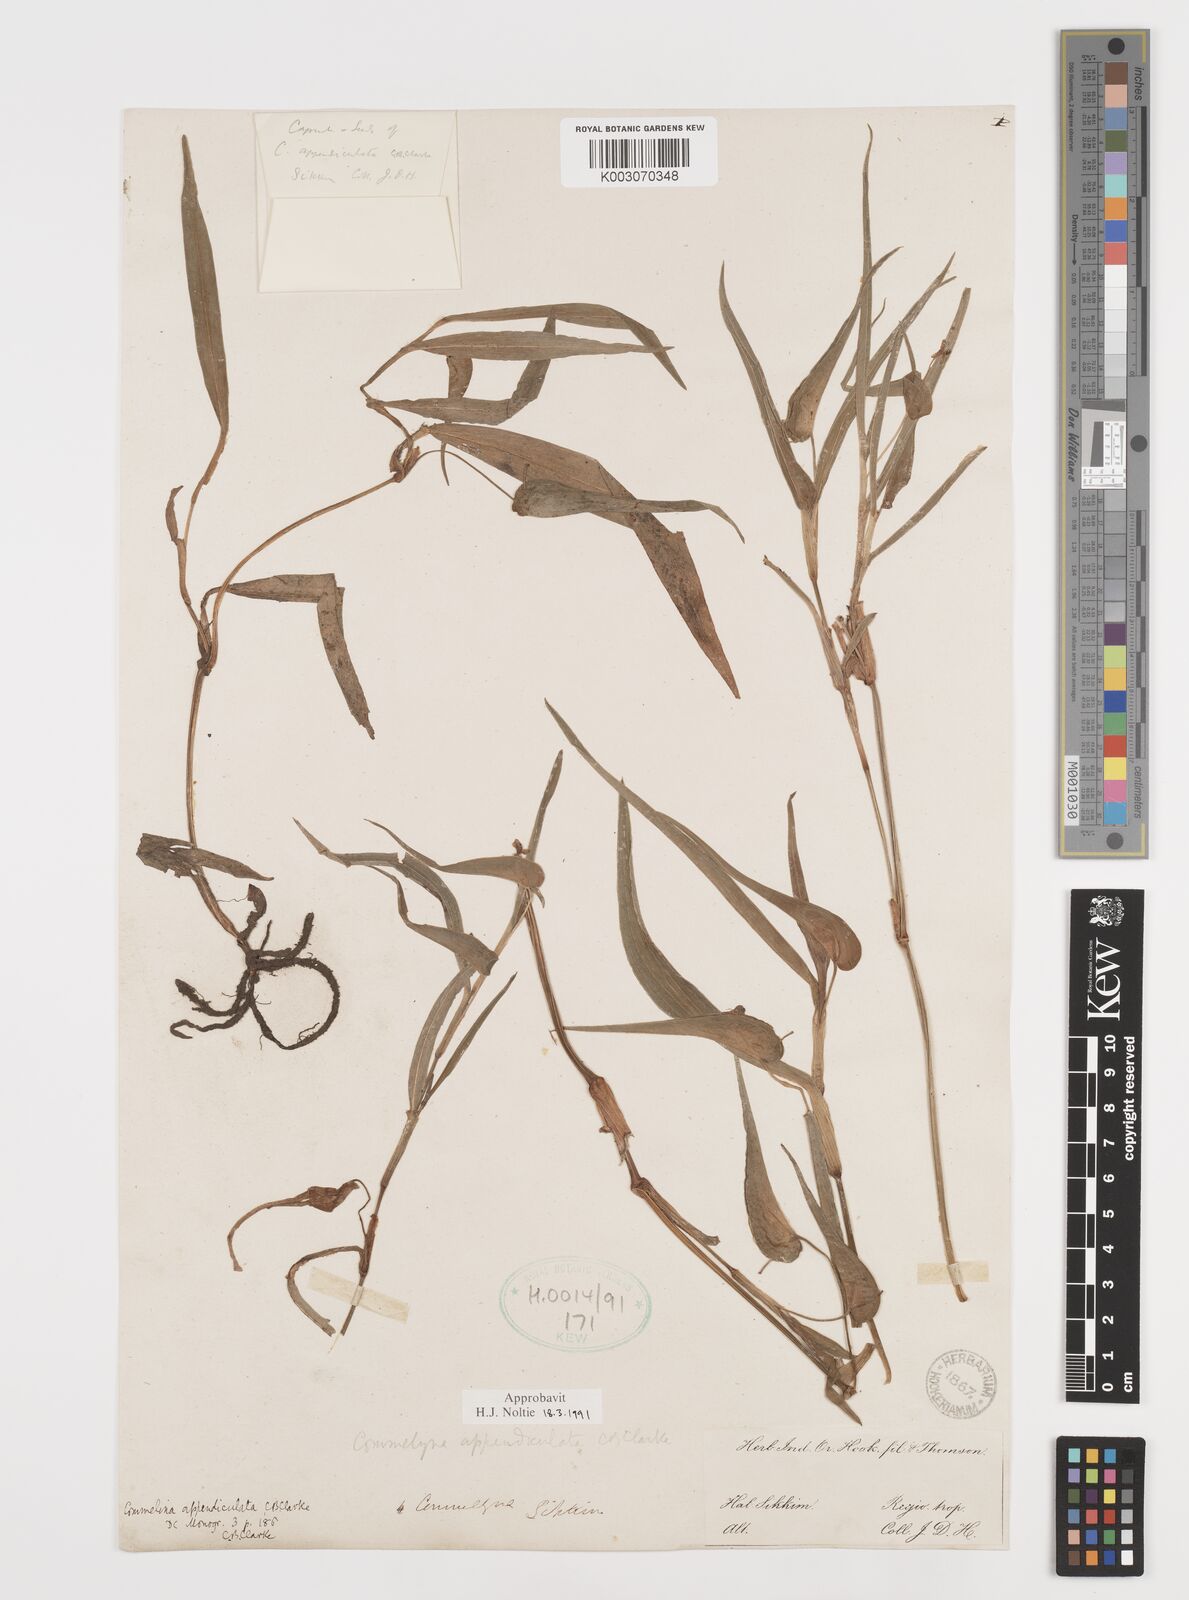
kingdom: Plantae
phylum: Tracheophyta
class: Liliopsida
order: Commelinales
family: Commelinaceae
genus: Commelina
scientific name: Commelina appendiculata
